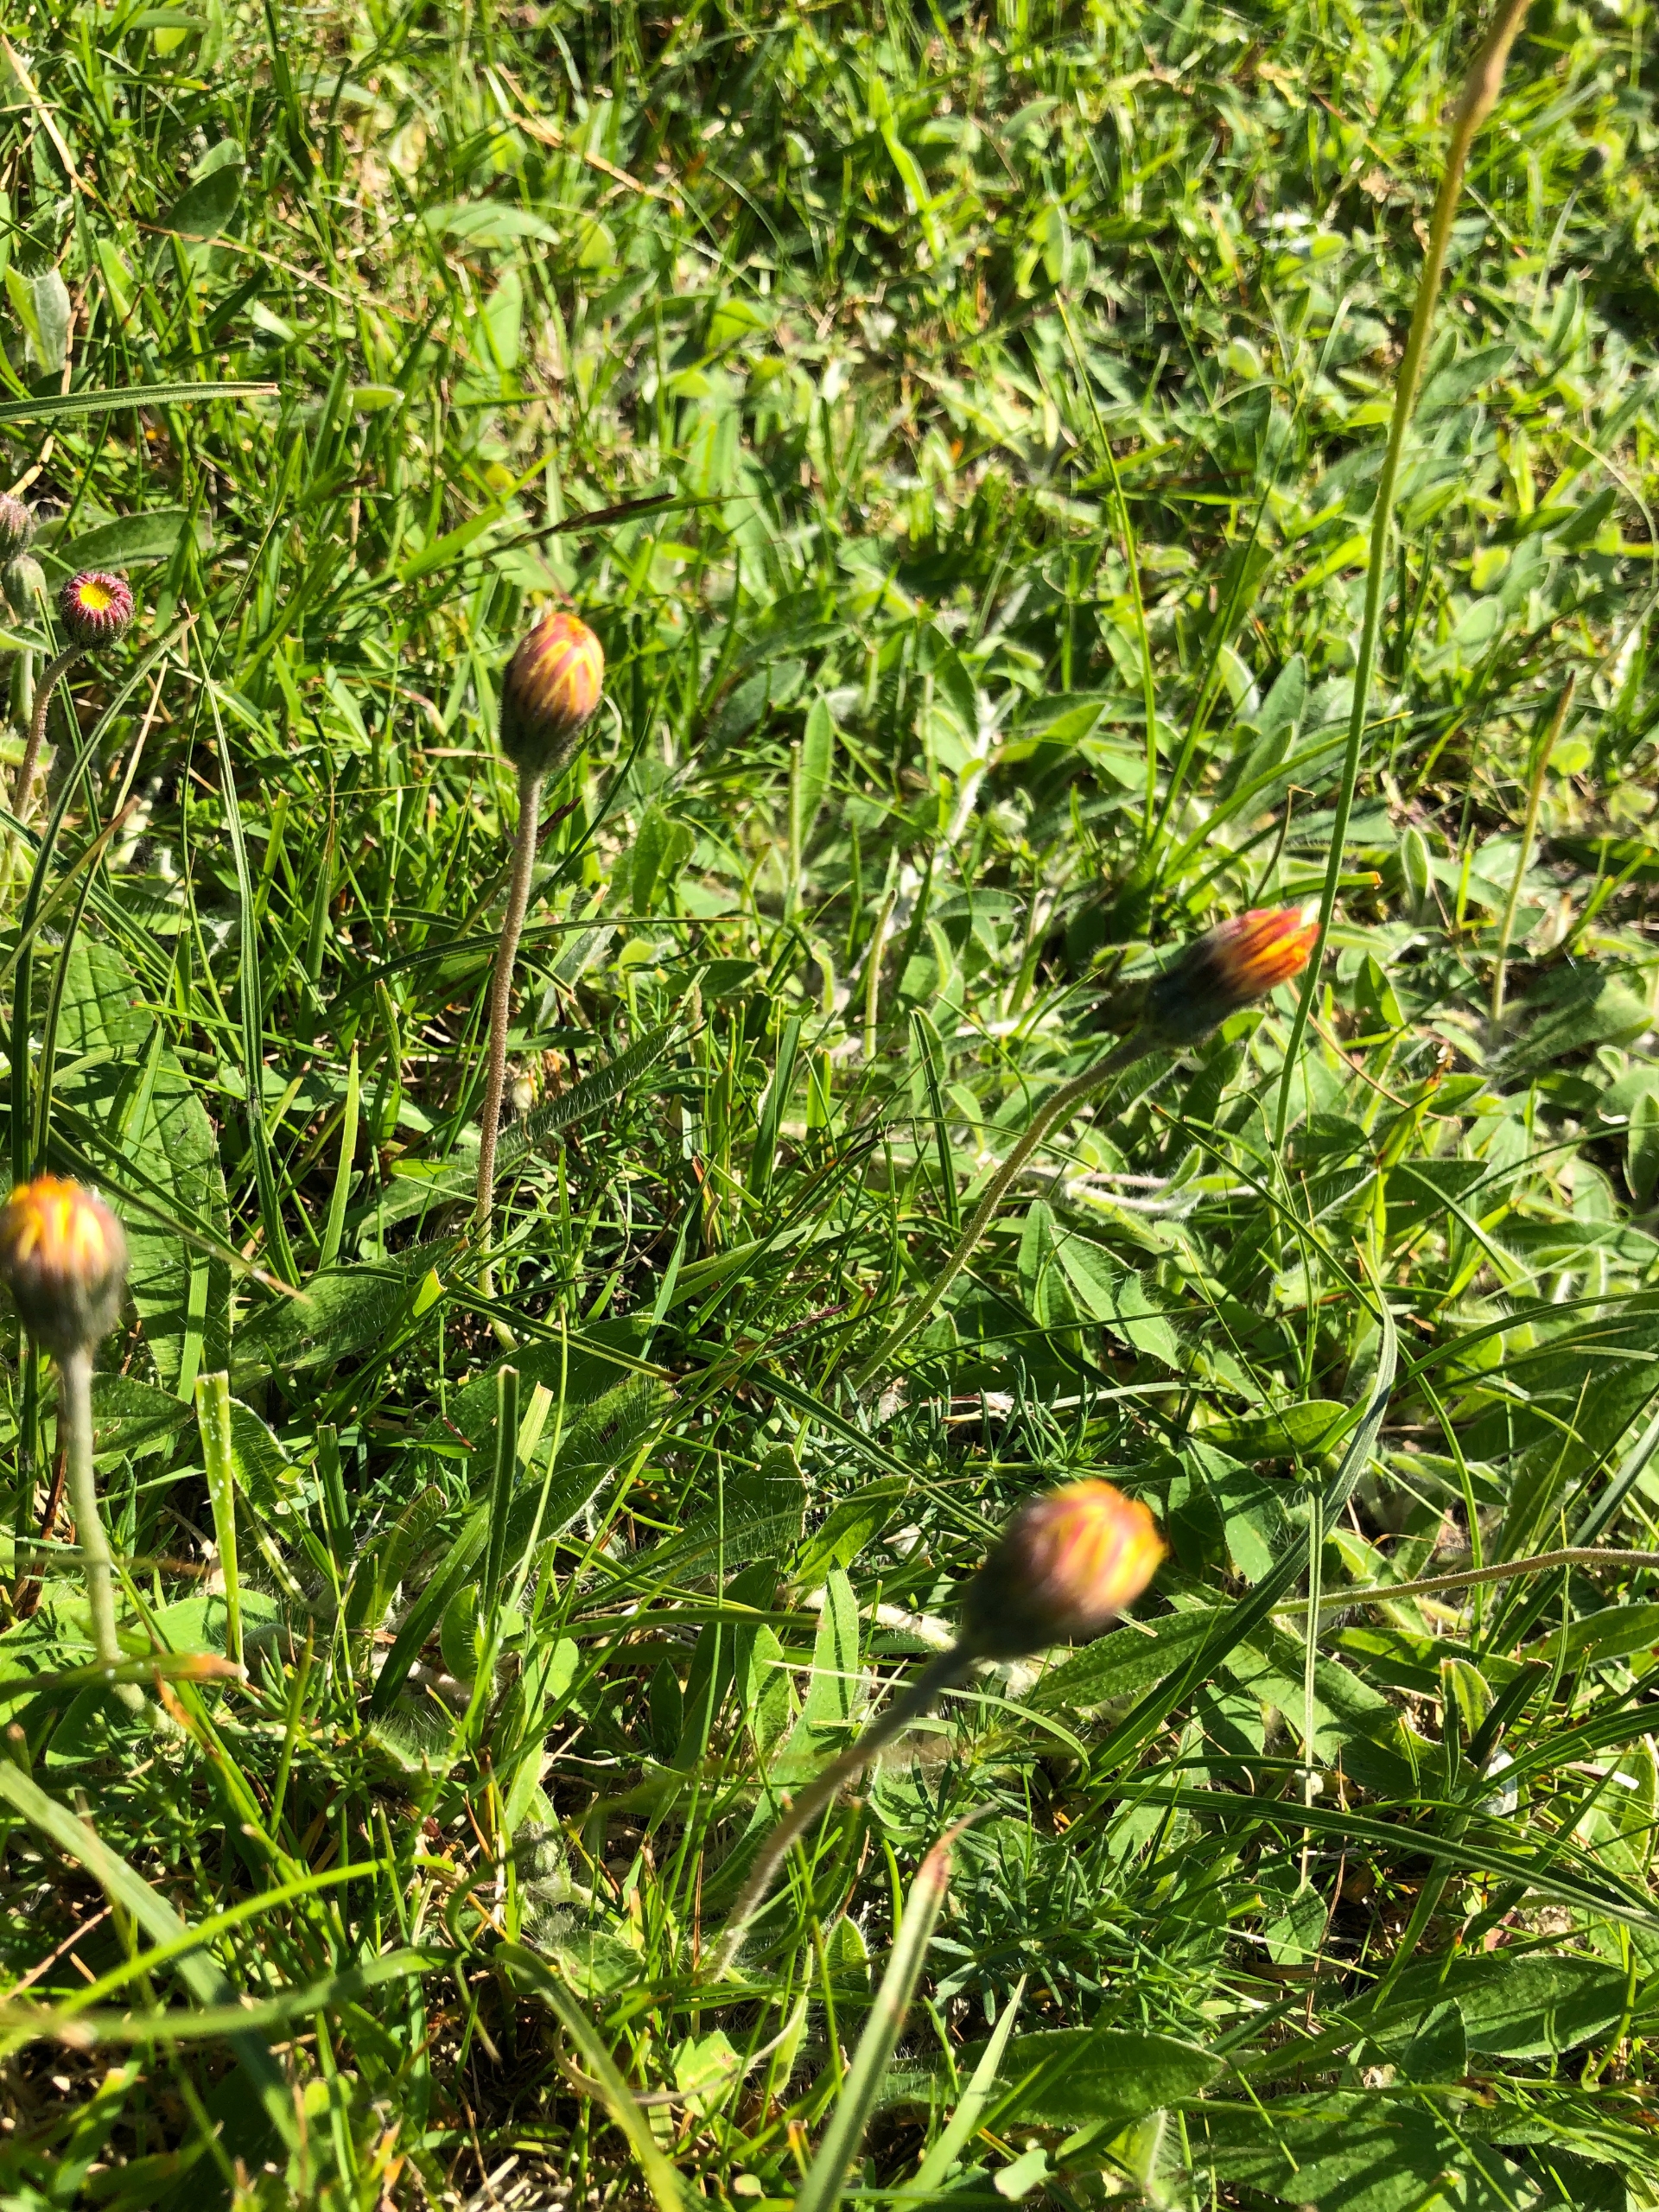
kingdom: Plantae
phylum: Tracheophyta
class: Magnoliopsida
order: Asterales
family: Asteraceae
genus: Pilosella
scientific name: Pilosella officinarum
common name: Håret høgeurt
